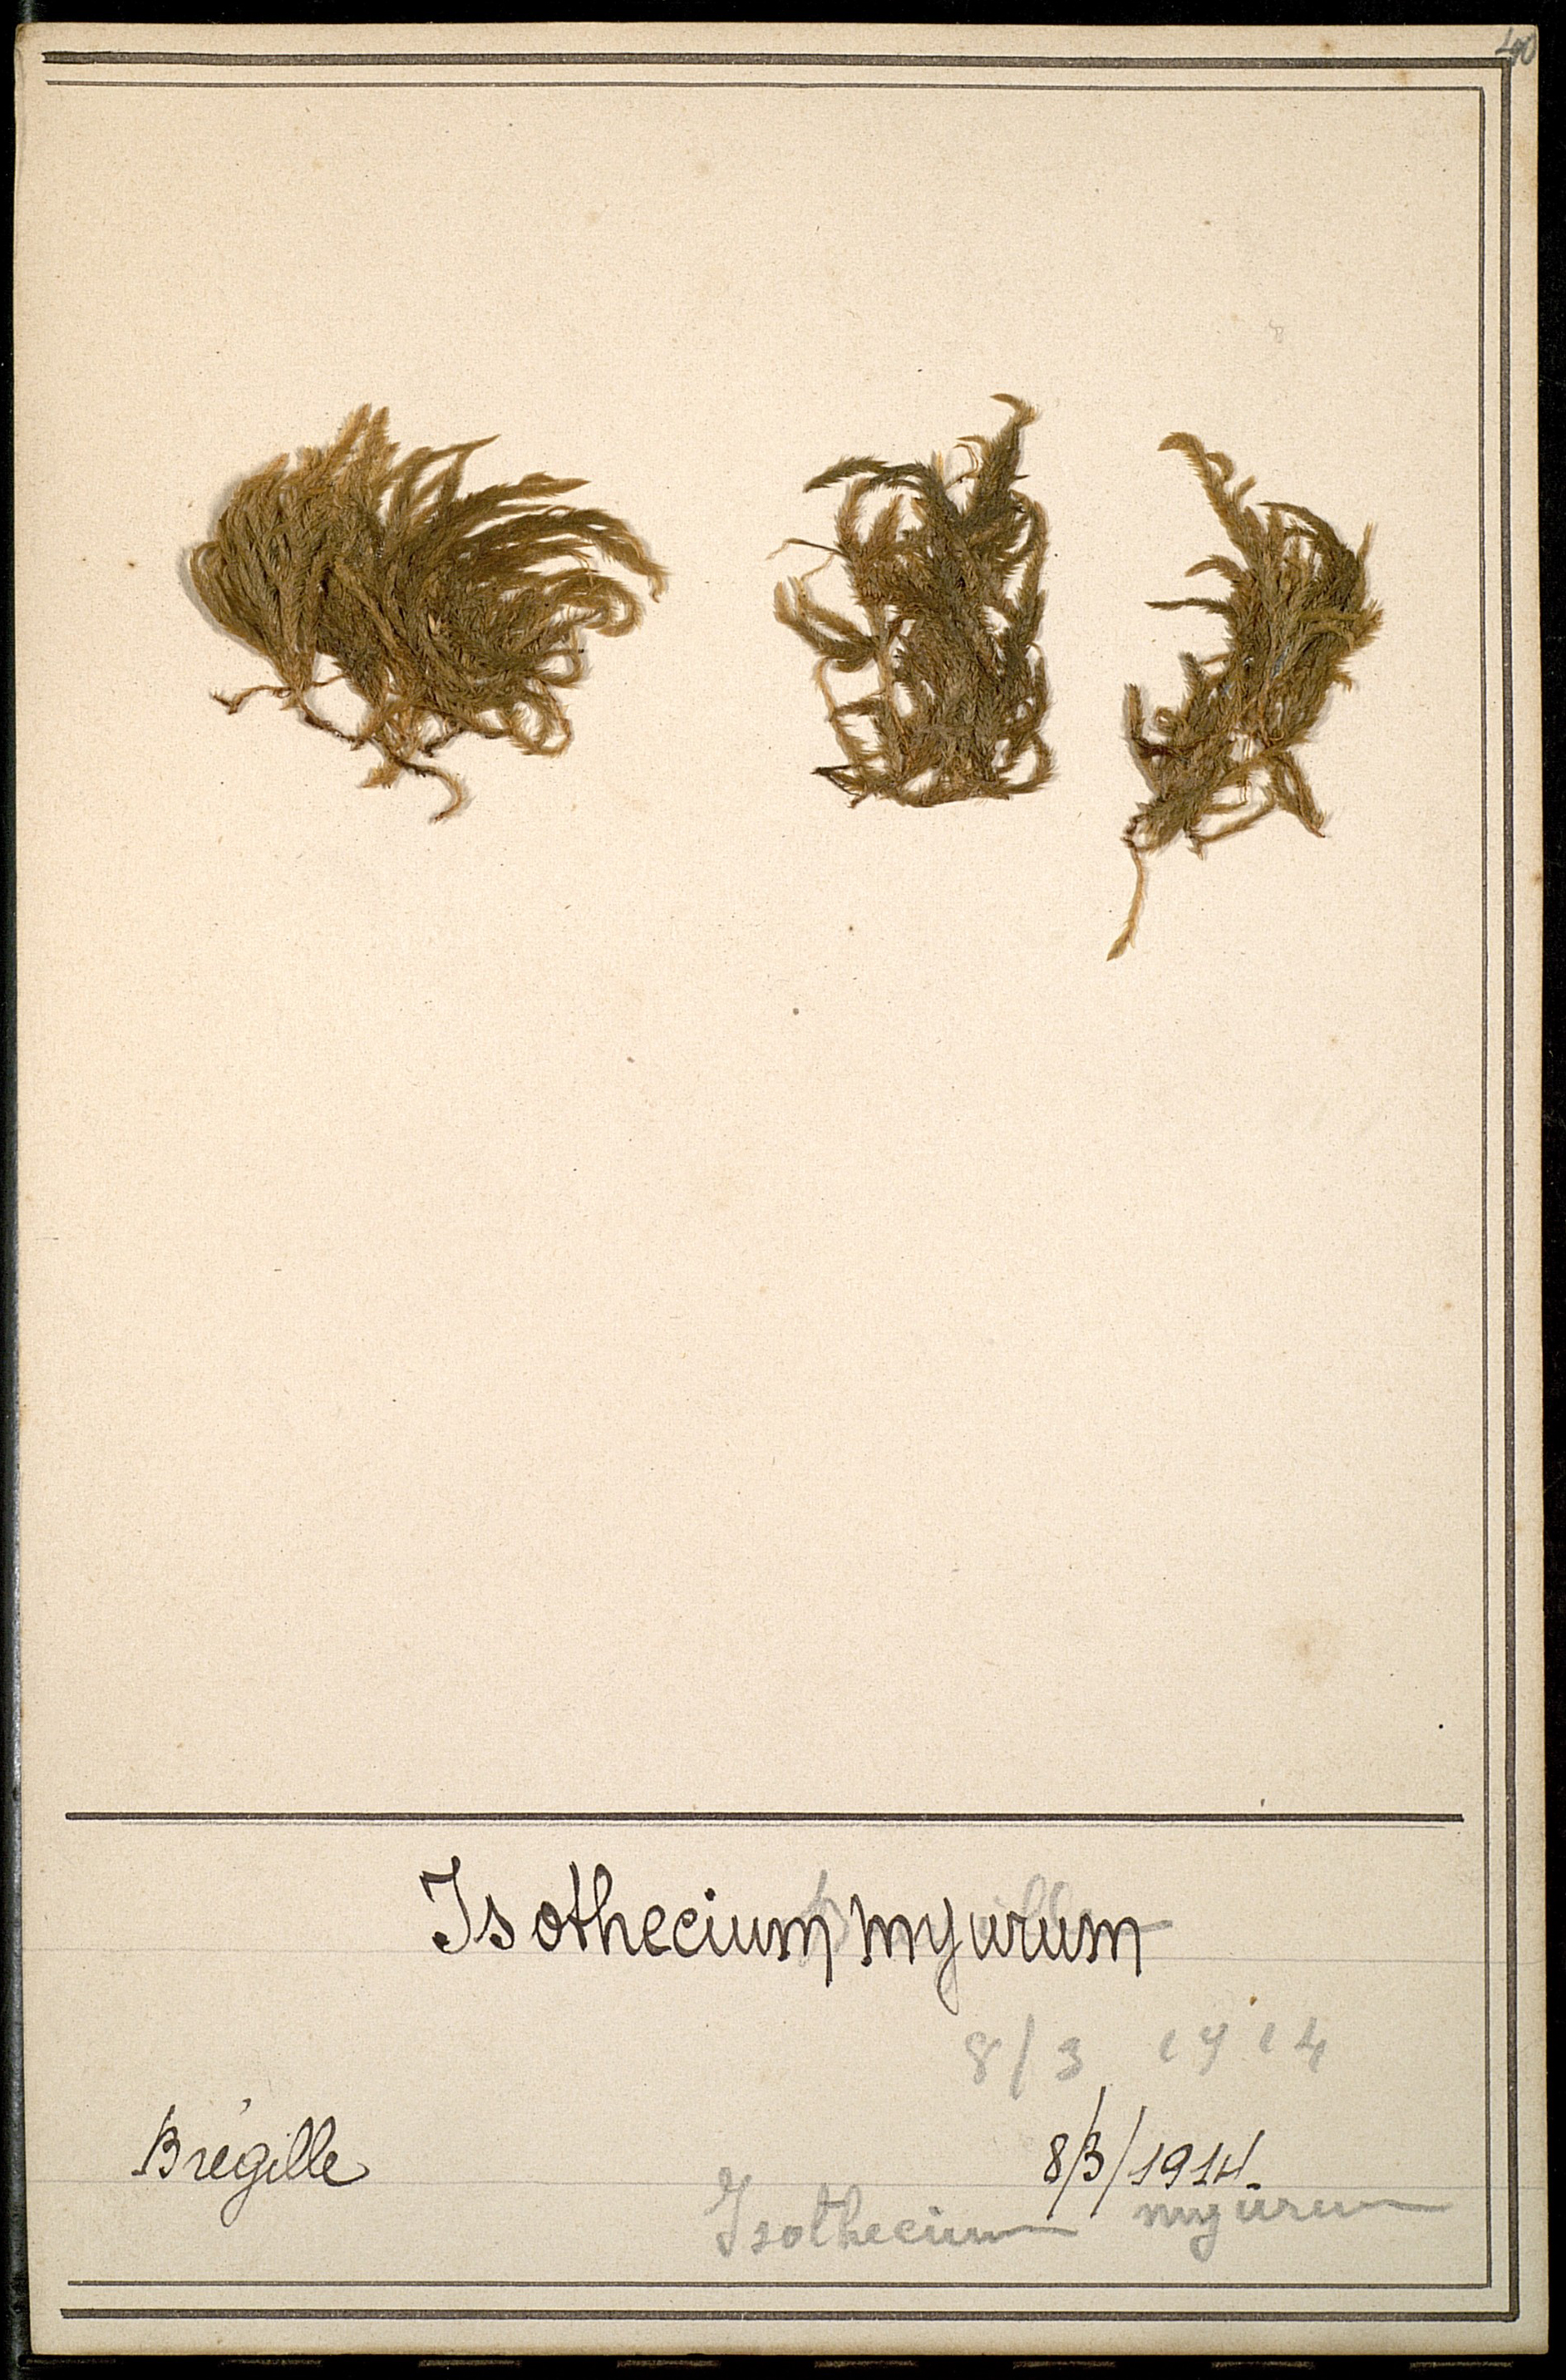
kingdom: Plantae
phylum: Bryophyta
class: Bryopsida
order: Hypnales
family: Lembophyllaceae
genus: Isothecium
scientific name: Isothecium alopecuroides
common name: Larger mouse-tail moss
